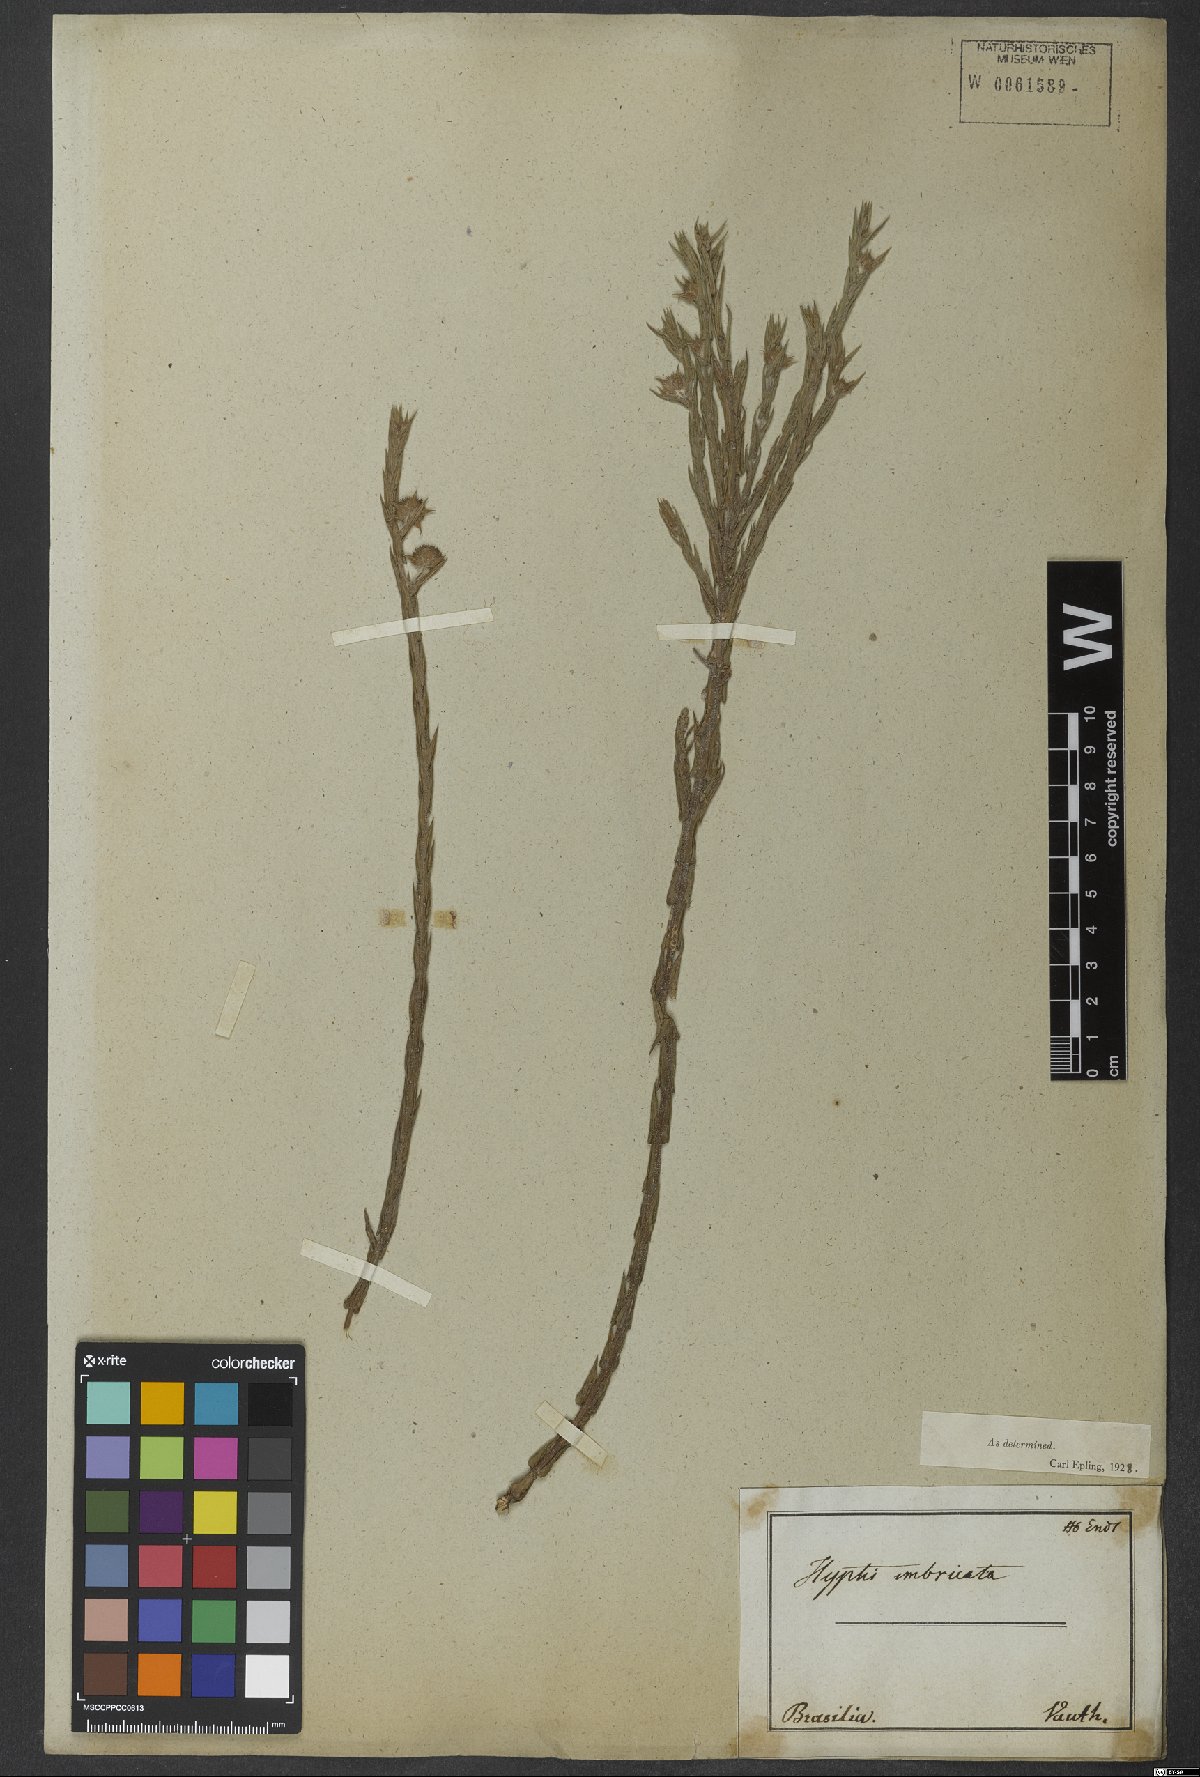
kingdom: Plantae
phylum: Tracheophyta
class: Magnoliopsida
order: Lamiales
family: Lamiaceae
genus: Hyptis
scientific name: Hyptis imbricata
